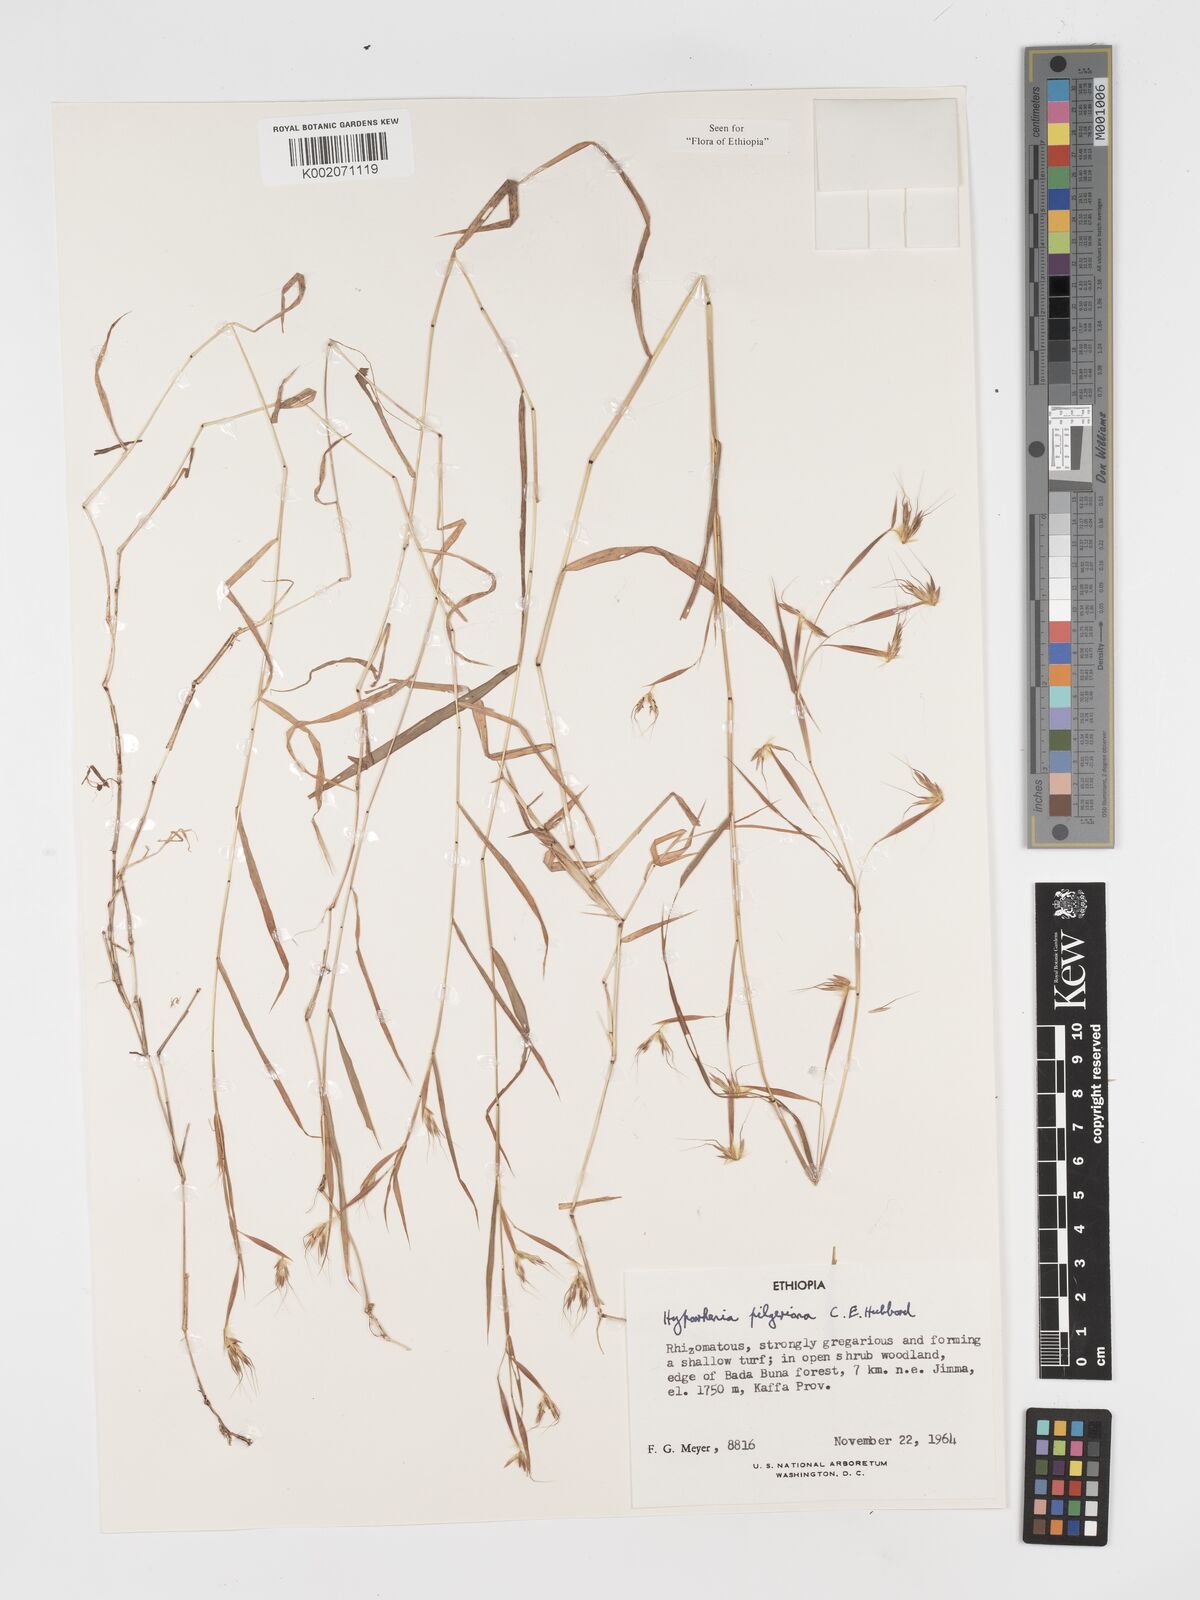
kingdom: Plantae
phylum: Tracheophyta
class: Liliopsida
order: Poales
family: Poaceae
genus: Hyparrhenia
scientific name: Hyparrhenia pilgeriana
